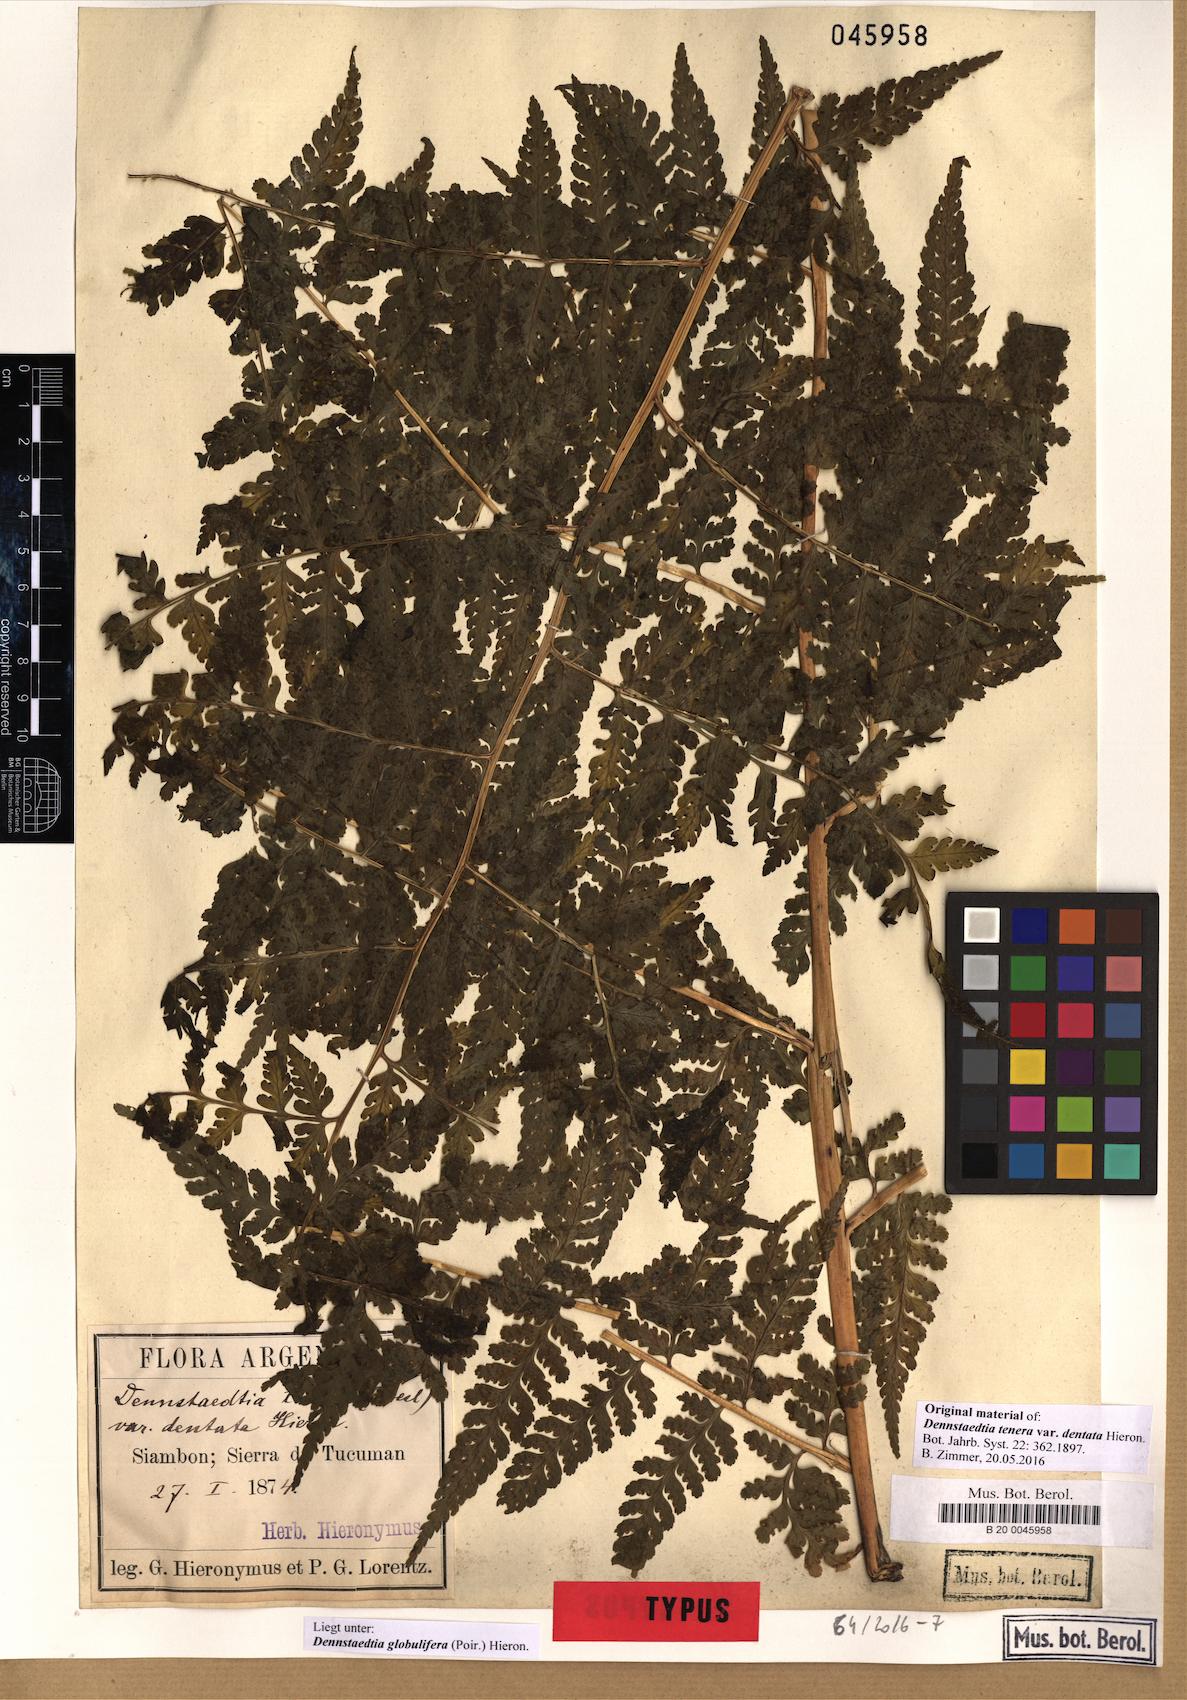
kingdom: Plantae
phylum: Tracheophyta
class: Polypodiopsida
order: Polypodiales
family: Dennstaedtiaceae
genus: Mucura
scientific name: Mucura globulifera
